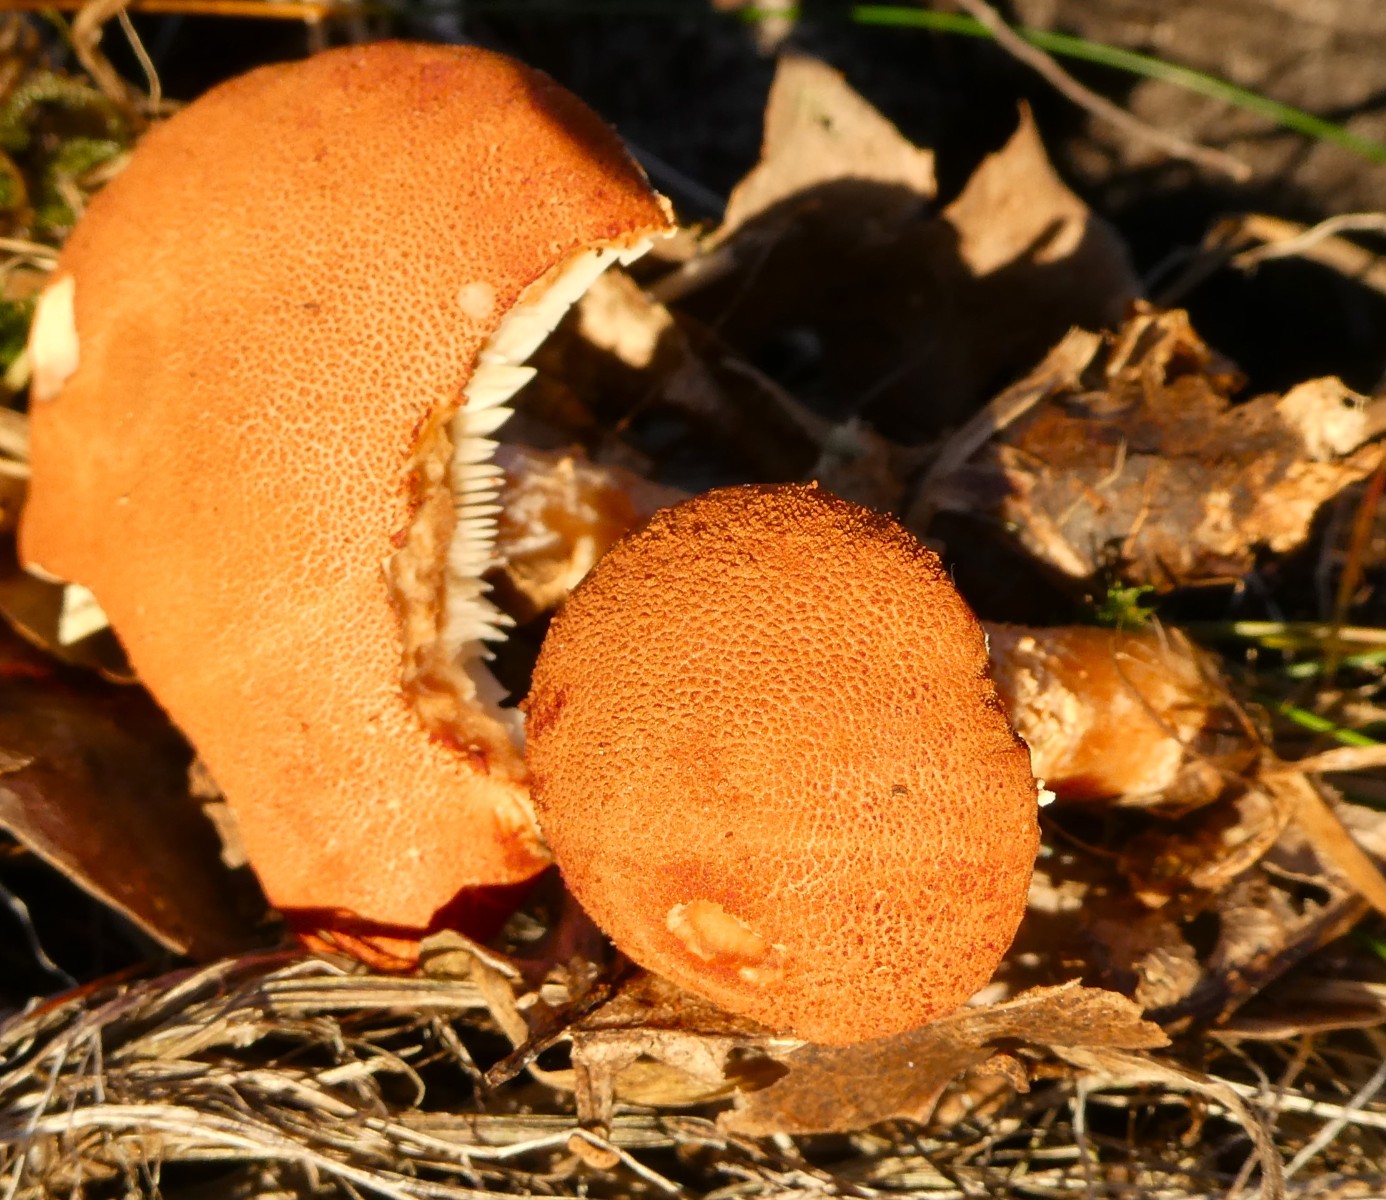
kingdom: Fungi
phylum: Basidiomycota
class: Agaricomycetes
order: Agaricales
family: Agaricaceae
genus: Cystodermella
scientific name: Cystodermella cinnabarina
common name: cinnober-grynhat
